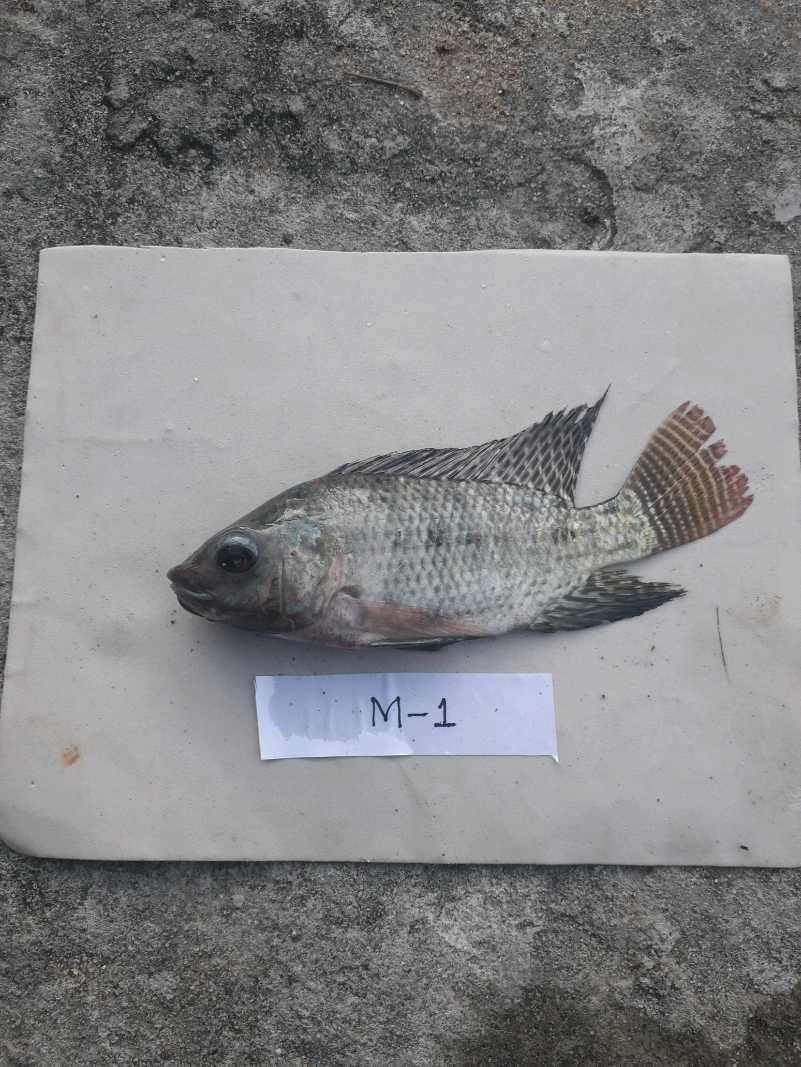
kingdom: Animalia
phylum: Chordata
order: Perciformes
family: Cichlidae
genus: Oreochromis
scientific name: Oreochromis niloticus
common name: Nile tilapia
